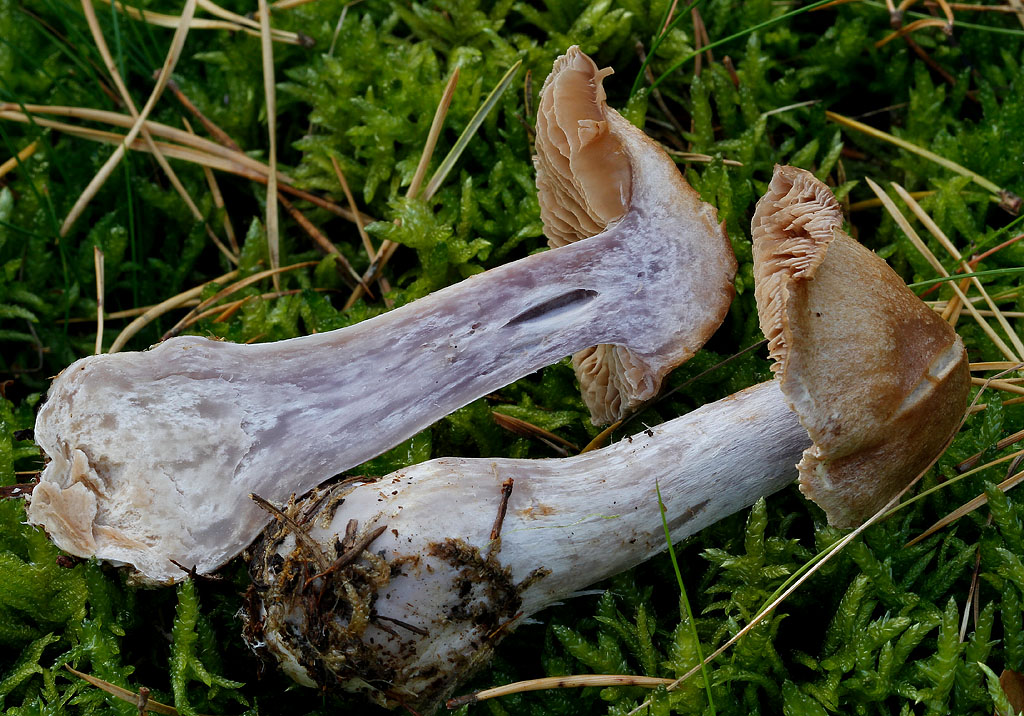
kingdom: Fungi
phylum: Basidiomycota
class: Agaricomycetes
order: Agaricales
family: Cortinariaceae
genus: Cortinarius
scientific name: Cortinarius quarciticus
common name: kvarts-slørhat
